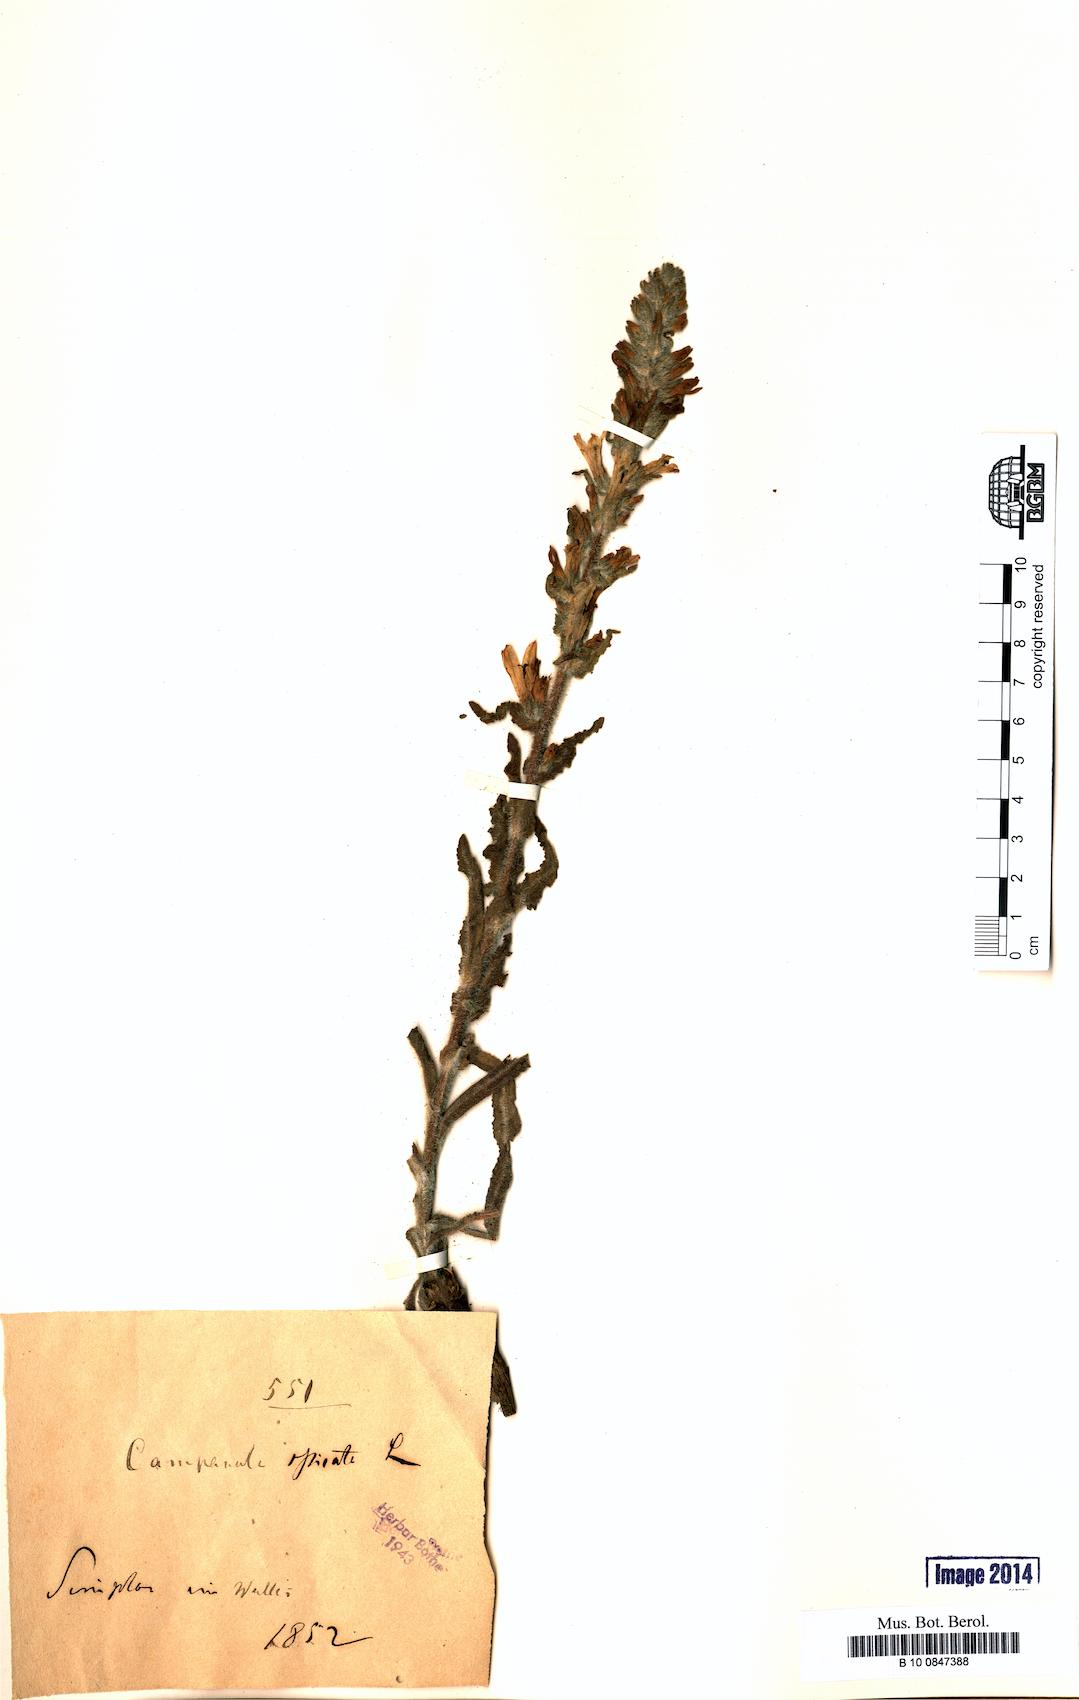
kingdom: Plantae
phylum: Tracheophyta
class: Magnoliopsida
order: Asterales
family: Campanulaceae
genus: Campanula
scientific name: Campanula spicata
